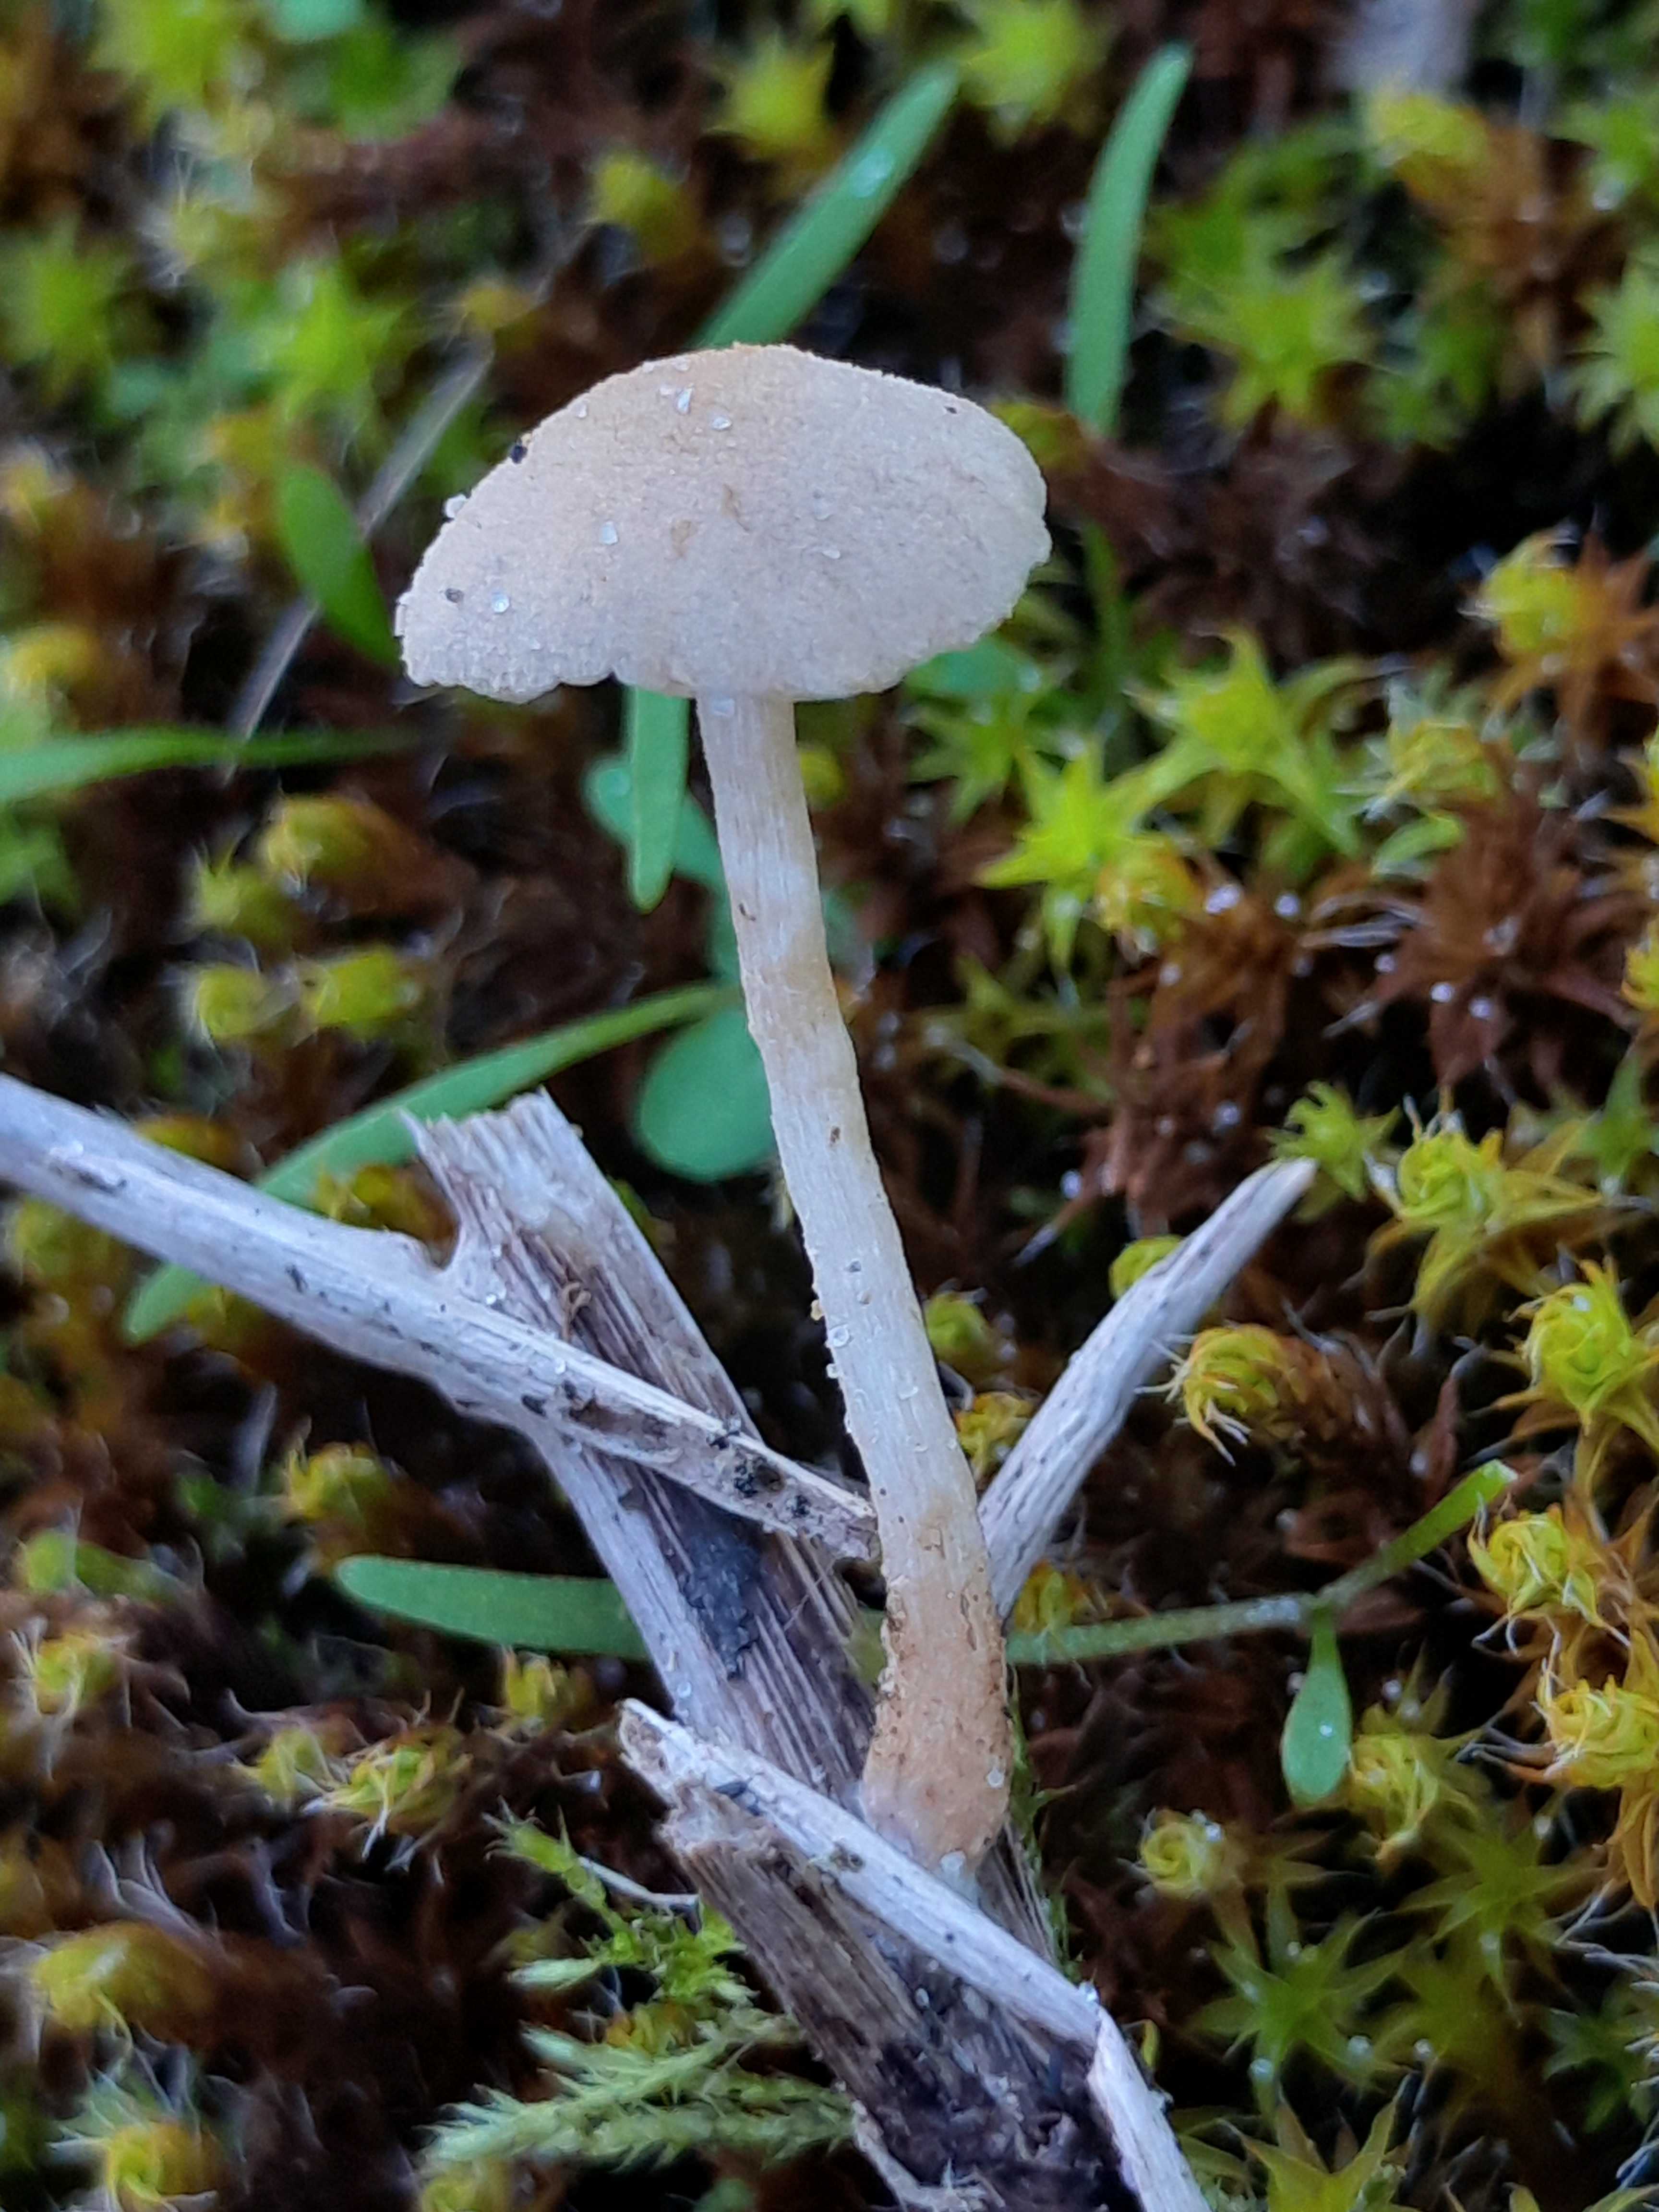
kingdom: Fungi
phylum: Basidiomycota
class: Agaricomycetes
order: Agaricales
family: Tubariaceae
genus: Flammulaster
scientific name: Flammulaster
